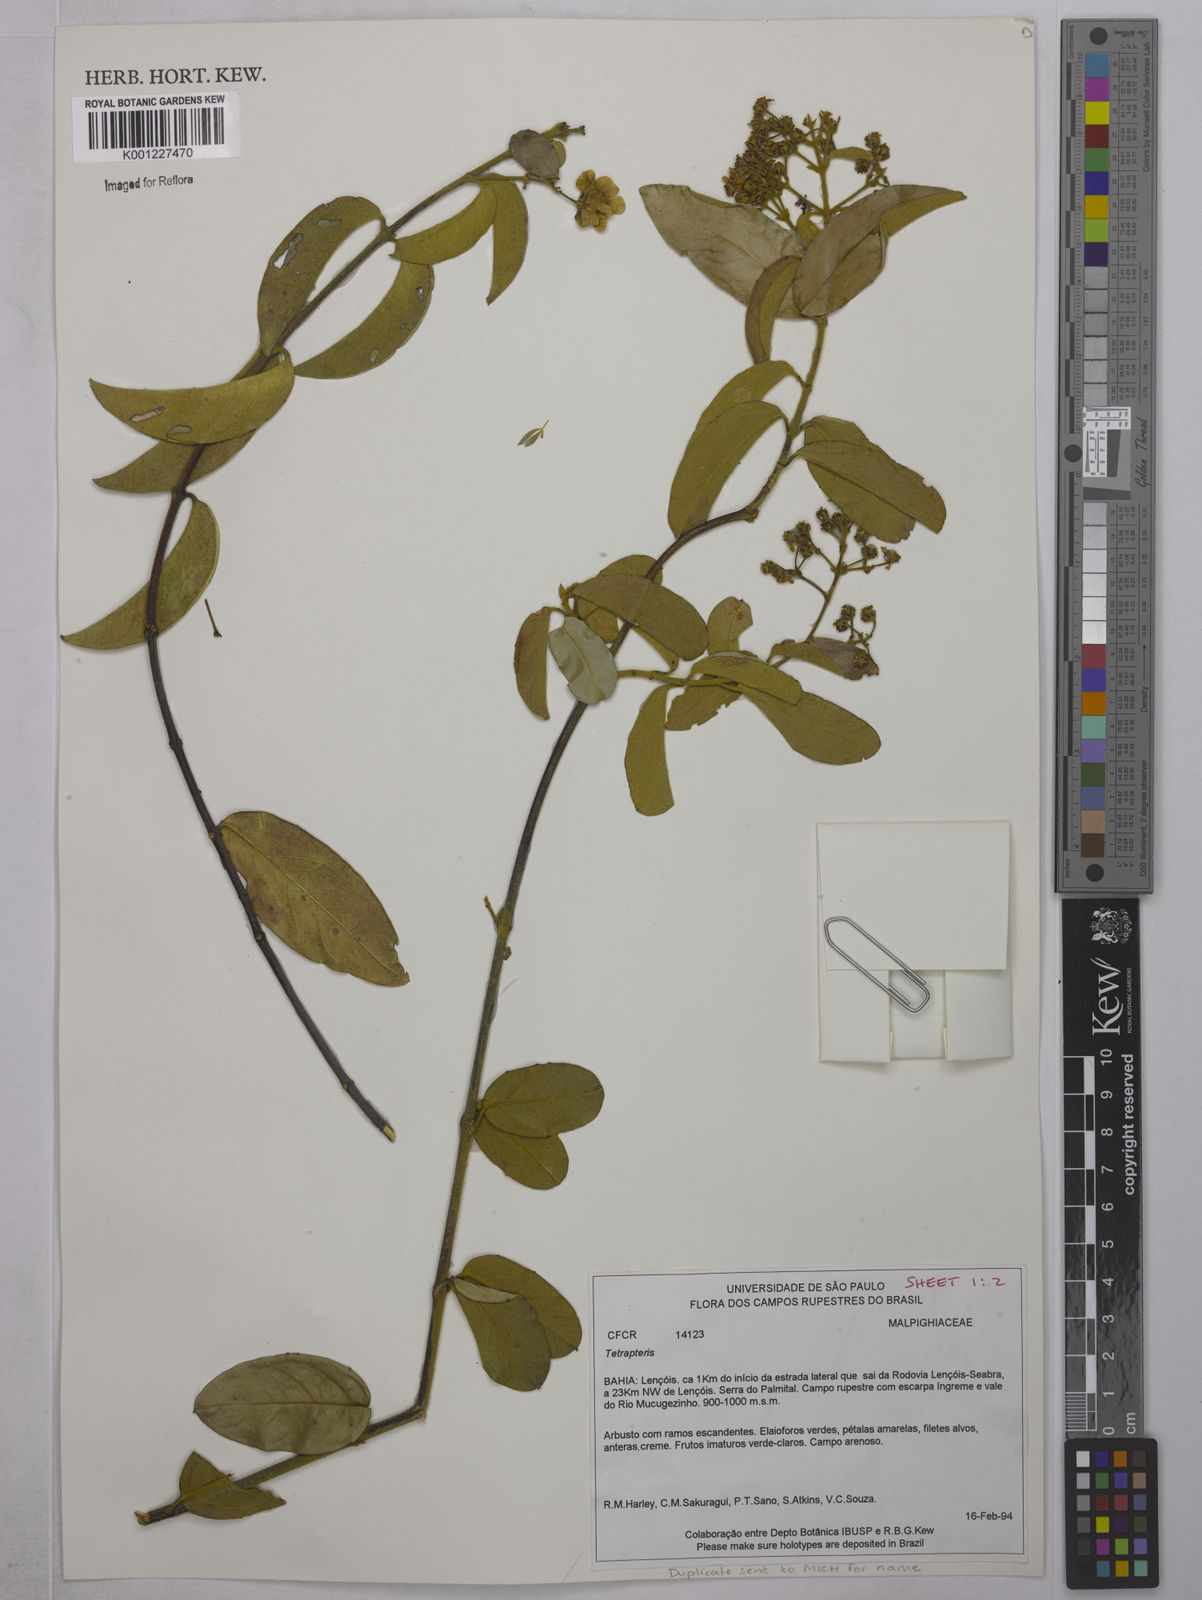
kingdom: Plantae
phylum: Tracheophyta
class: Magnoliopsida
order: Malpighiales
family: Malpighiaceae
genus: Tetrapterys
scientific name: Tetrapterys
